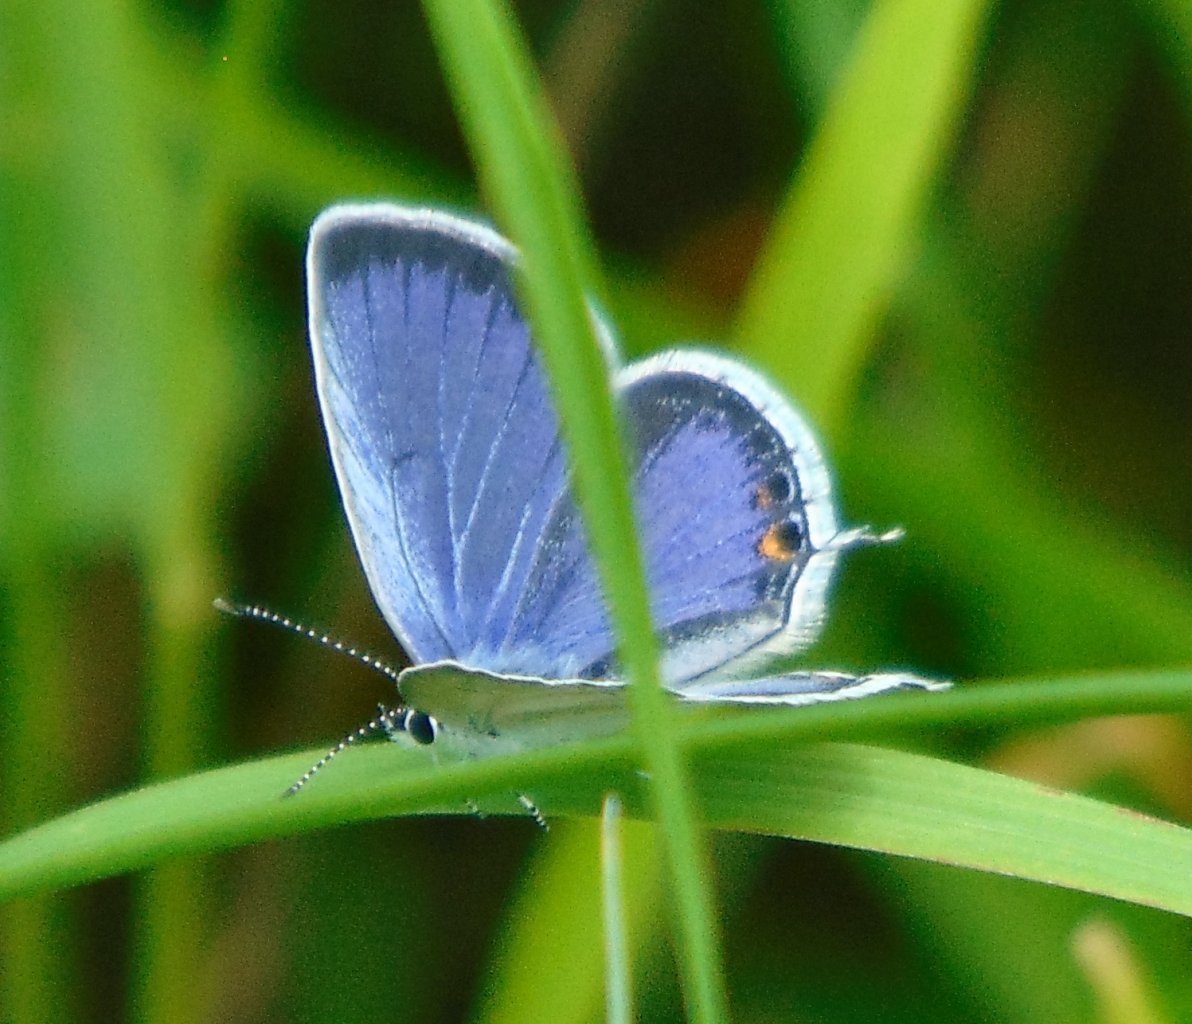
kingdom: Animalia
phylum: Arthropoda
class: Insecta
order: Lepidoptera
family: Lycaenidae
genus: Elkalyce
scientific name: Elkalyce comyntas
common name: Eastern Tailed-Blue
